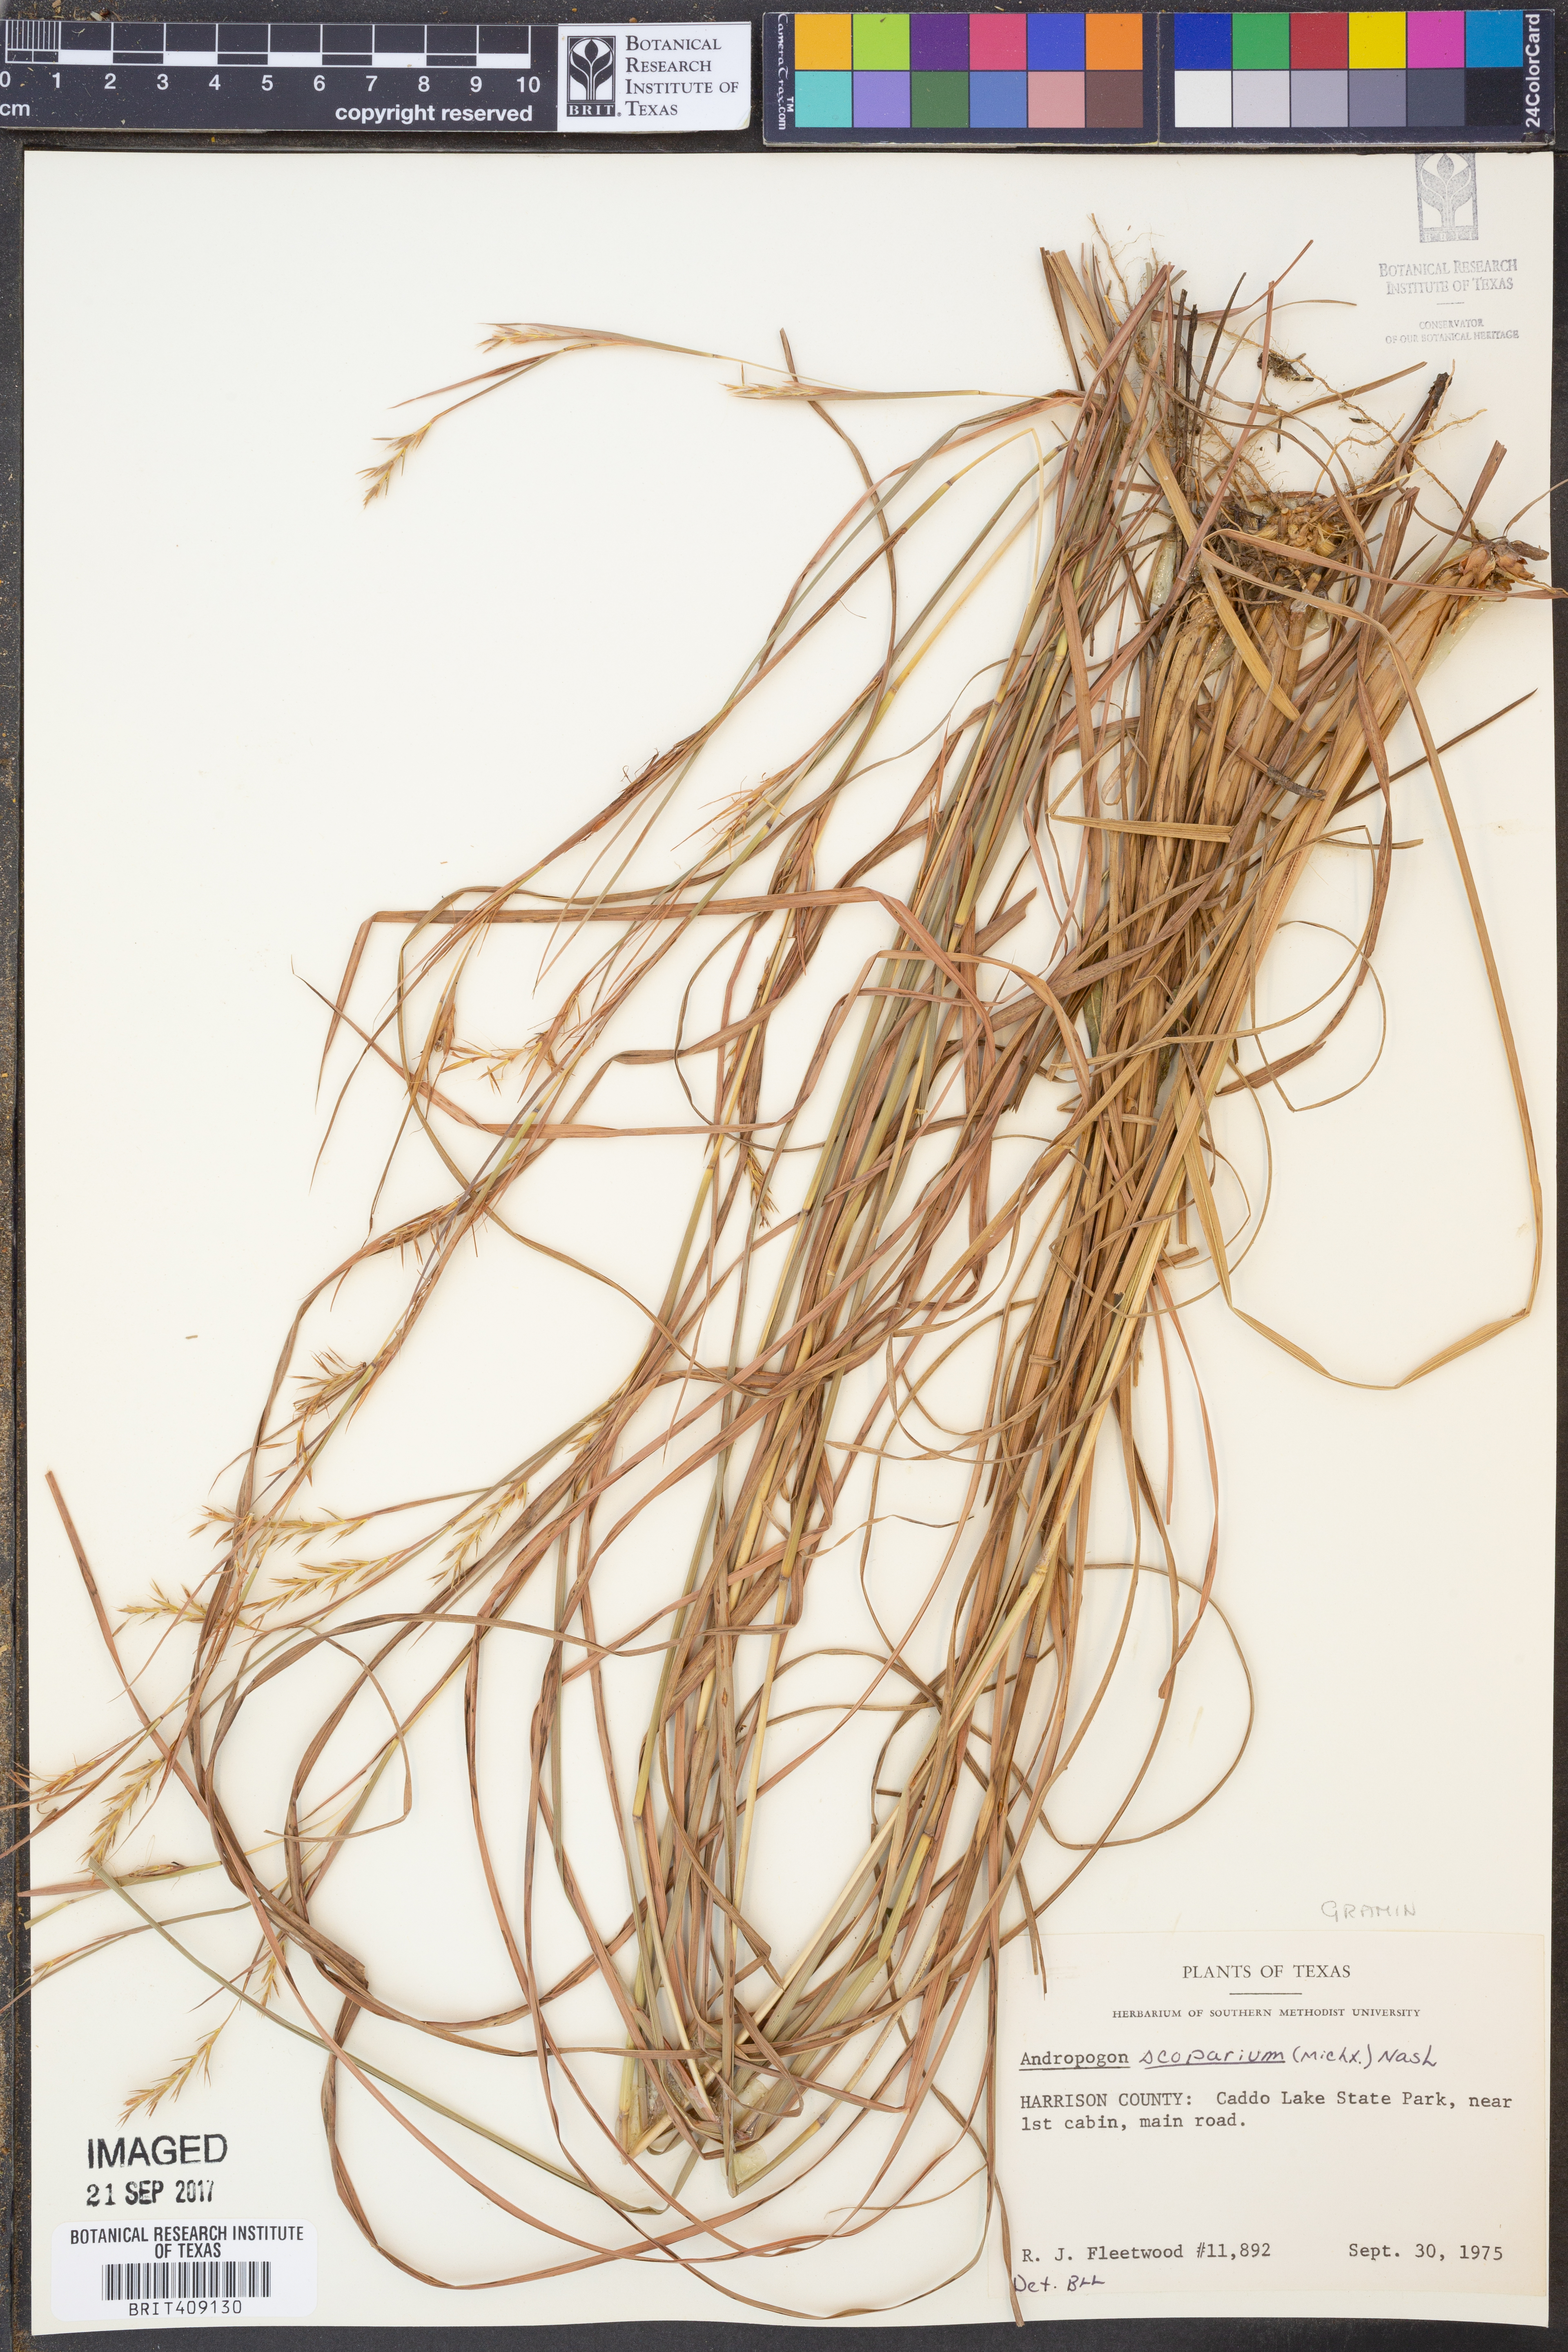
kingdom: Plantae
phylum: Tracheophyta
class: Liliopsida
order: Poales
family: Poaceae
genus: Schizachyrium
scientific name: Schizachyrium scoparium
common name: Little bluestem
